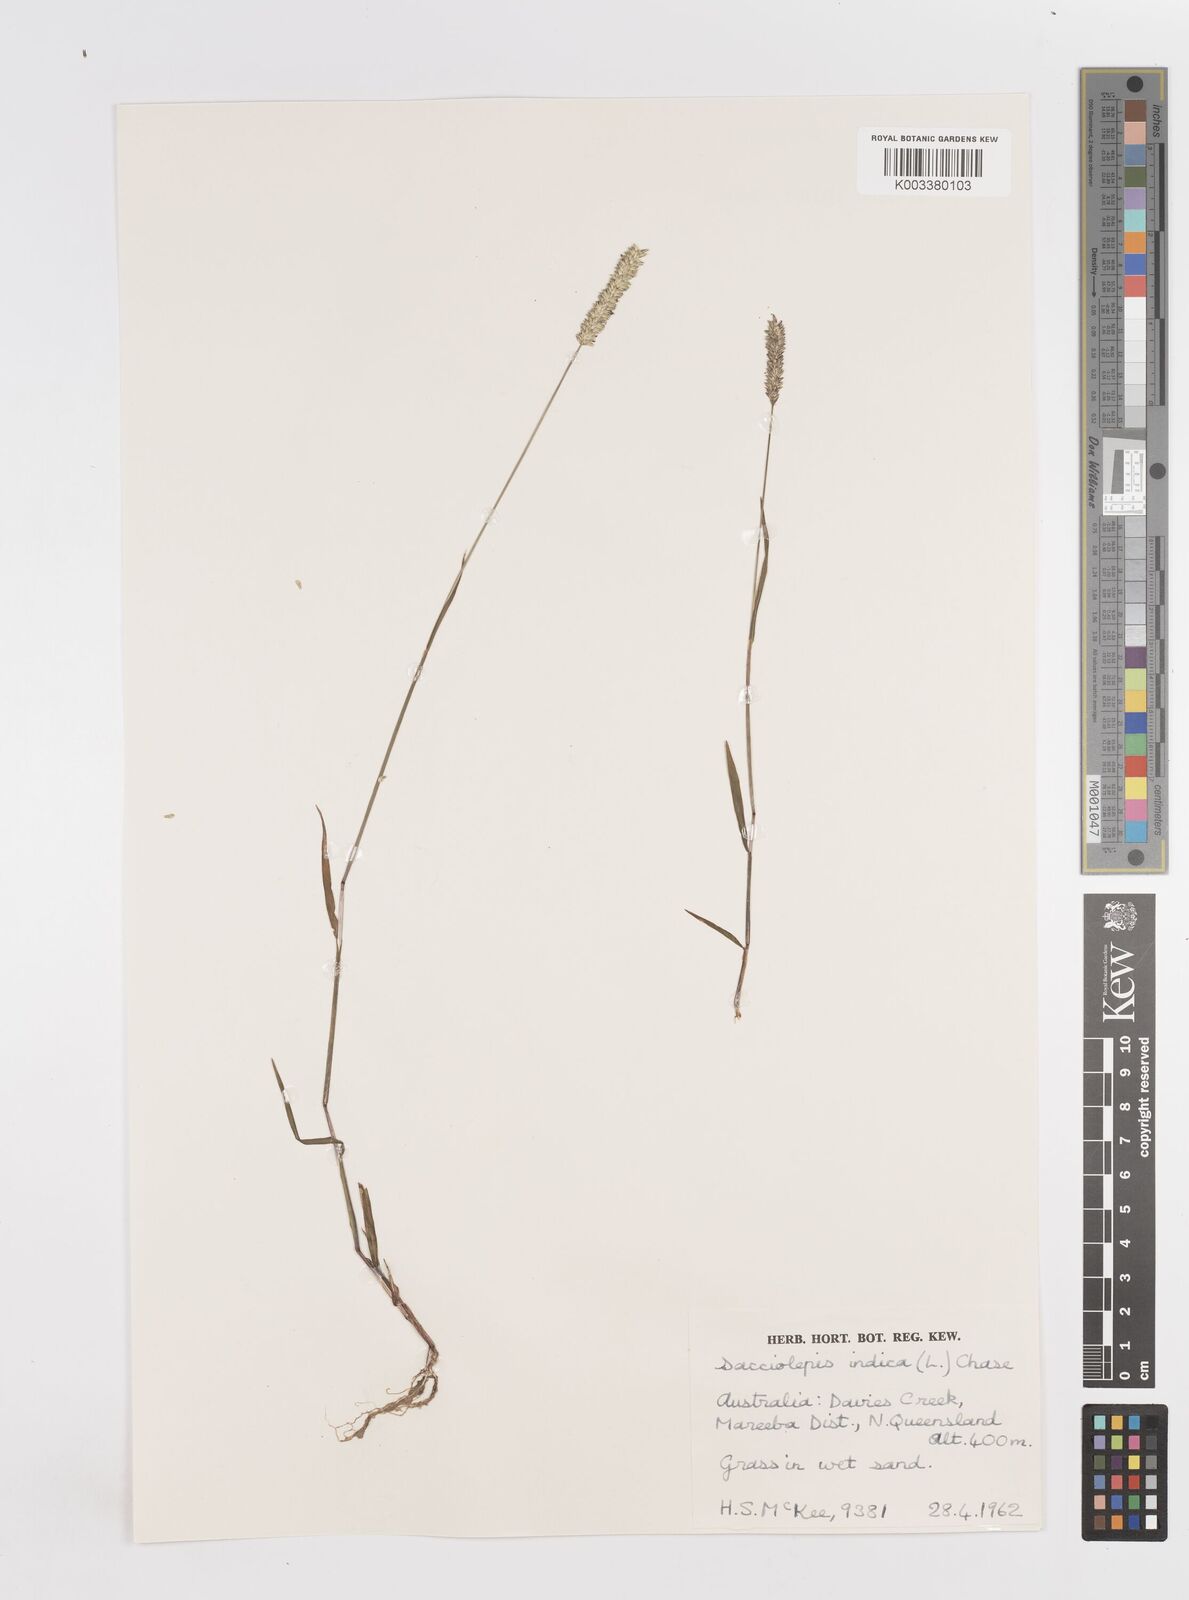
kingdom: Plantae
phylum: Tracheophyta
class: Liliopsida
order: Poales
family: Poaceae
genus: Sacciolepis
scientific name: Sacciolepis indica
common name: Glenwoodgrass
